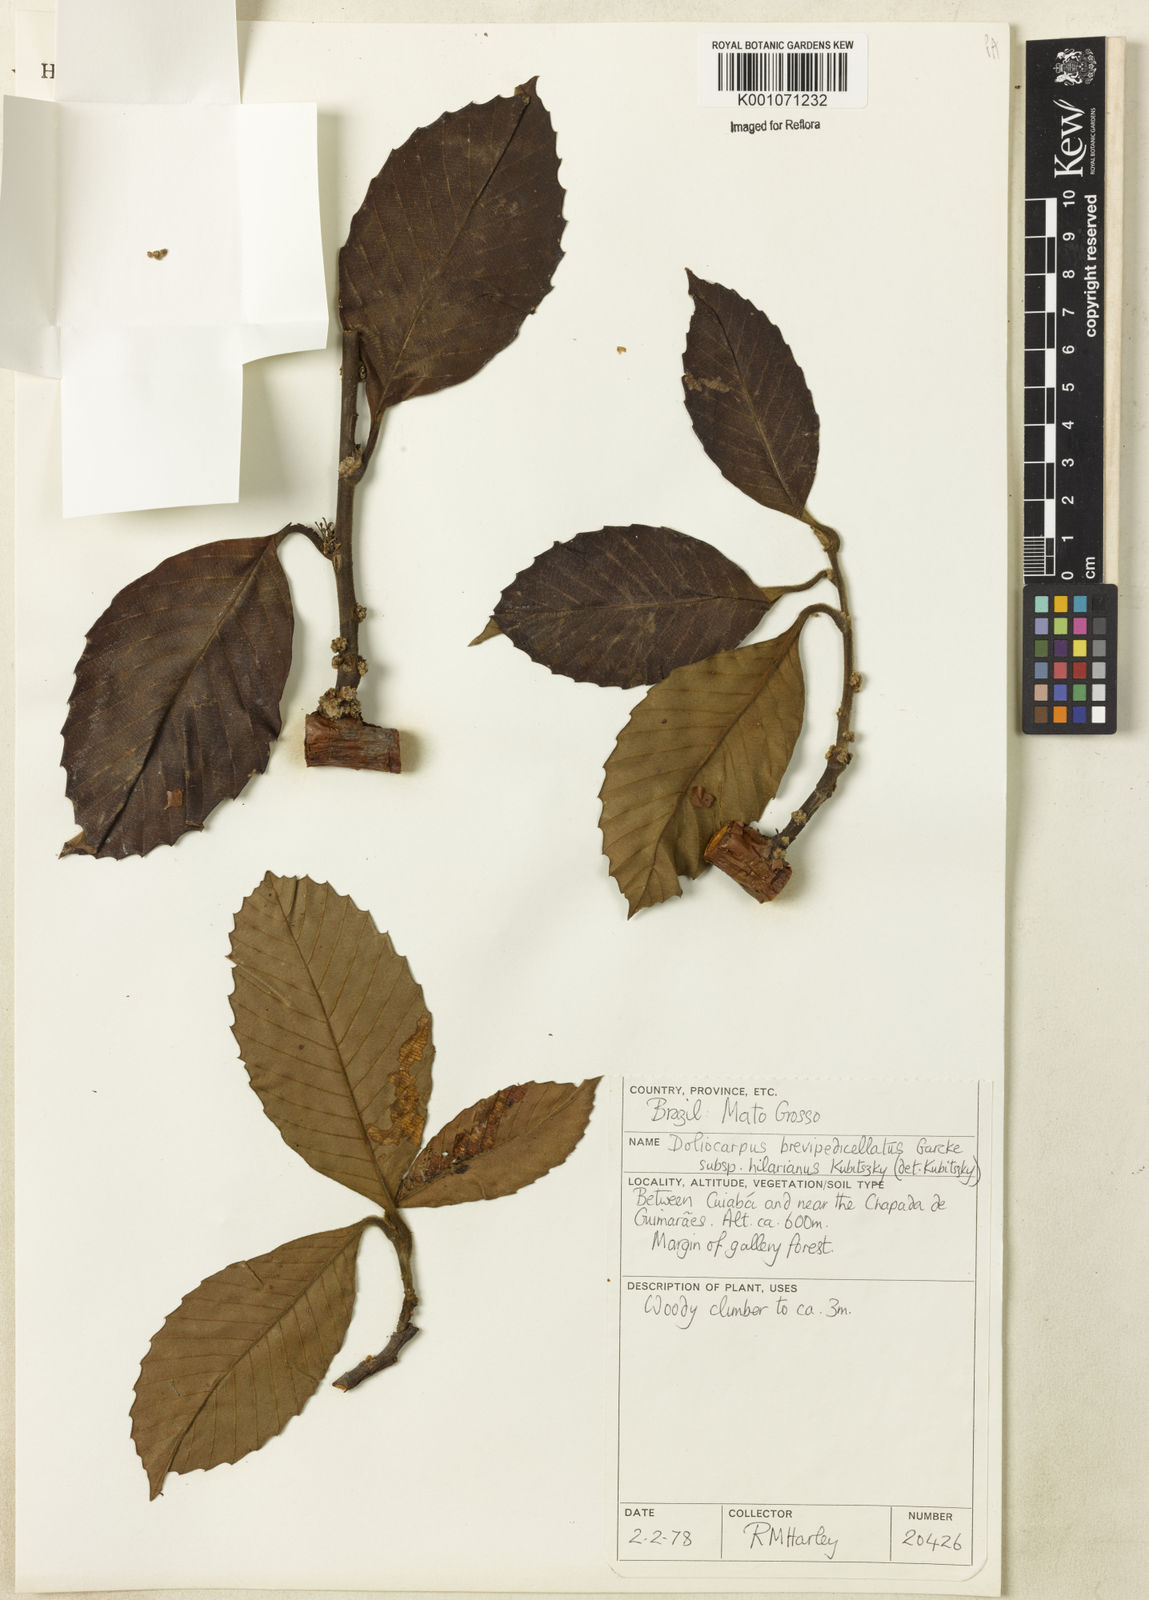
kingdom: Plantae
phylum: Tracheophyta
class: Magnoliopsida
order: Dilleniales
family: Dilleniaceae
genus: Doliocarpus
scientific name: Doliocarpus hilarianus
